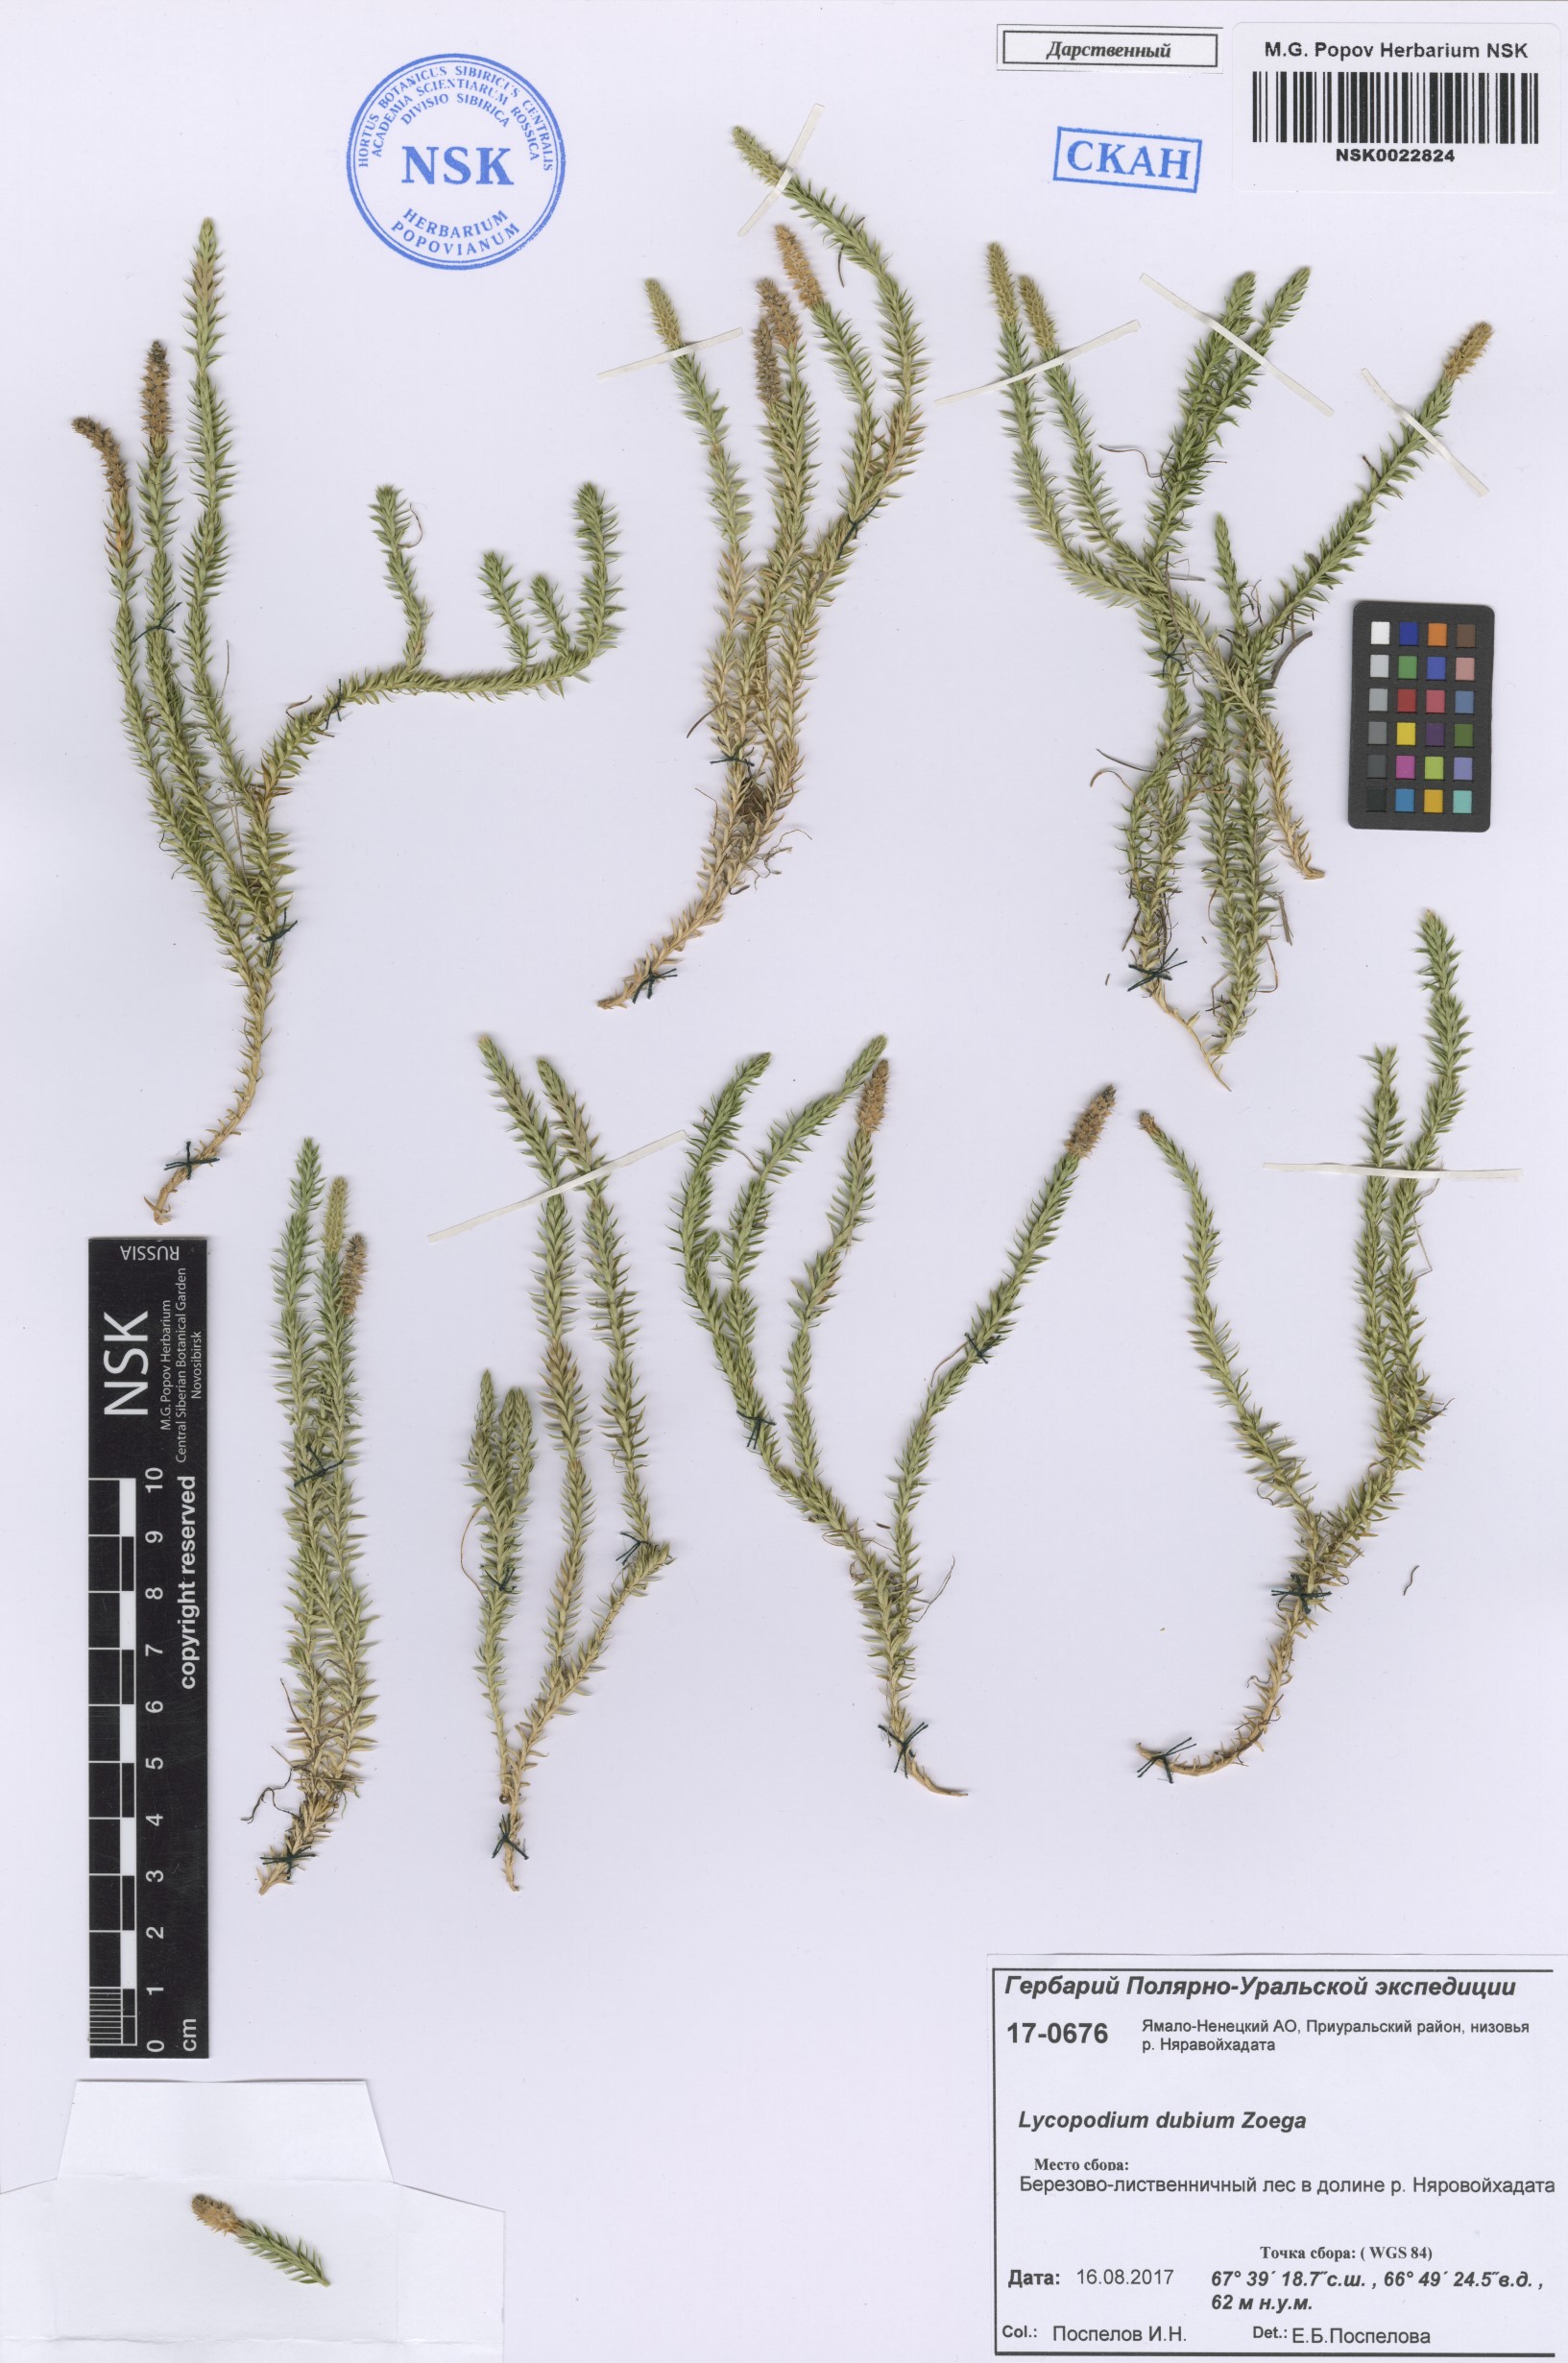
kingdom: Plantae
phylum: Tracheophyta
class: Lycopodiopsida
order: Lycopodiales
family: Lycopodiaceae
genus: Spinulum
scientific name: Spinulum annotinum
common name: Interrupted club-moss
